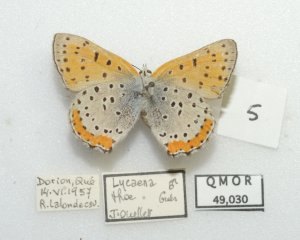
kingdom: Animalia
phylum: Arthropoda
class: Insecta
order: Lepidoptera
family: Sesiidae
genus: Sesia
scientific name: Sesia Lycaena hyllus
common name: Bronze Copper
